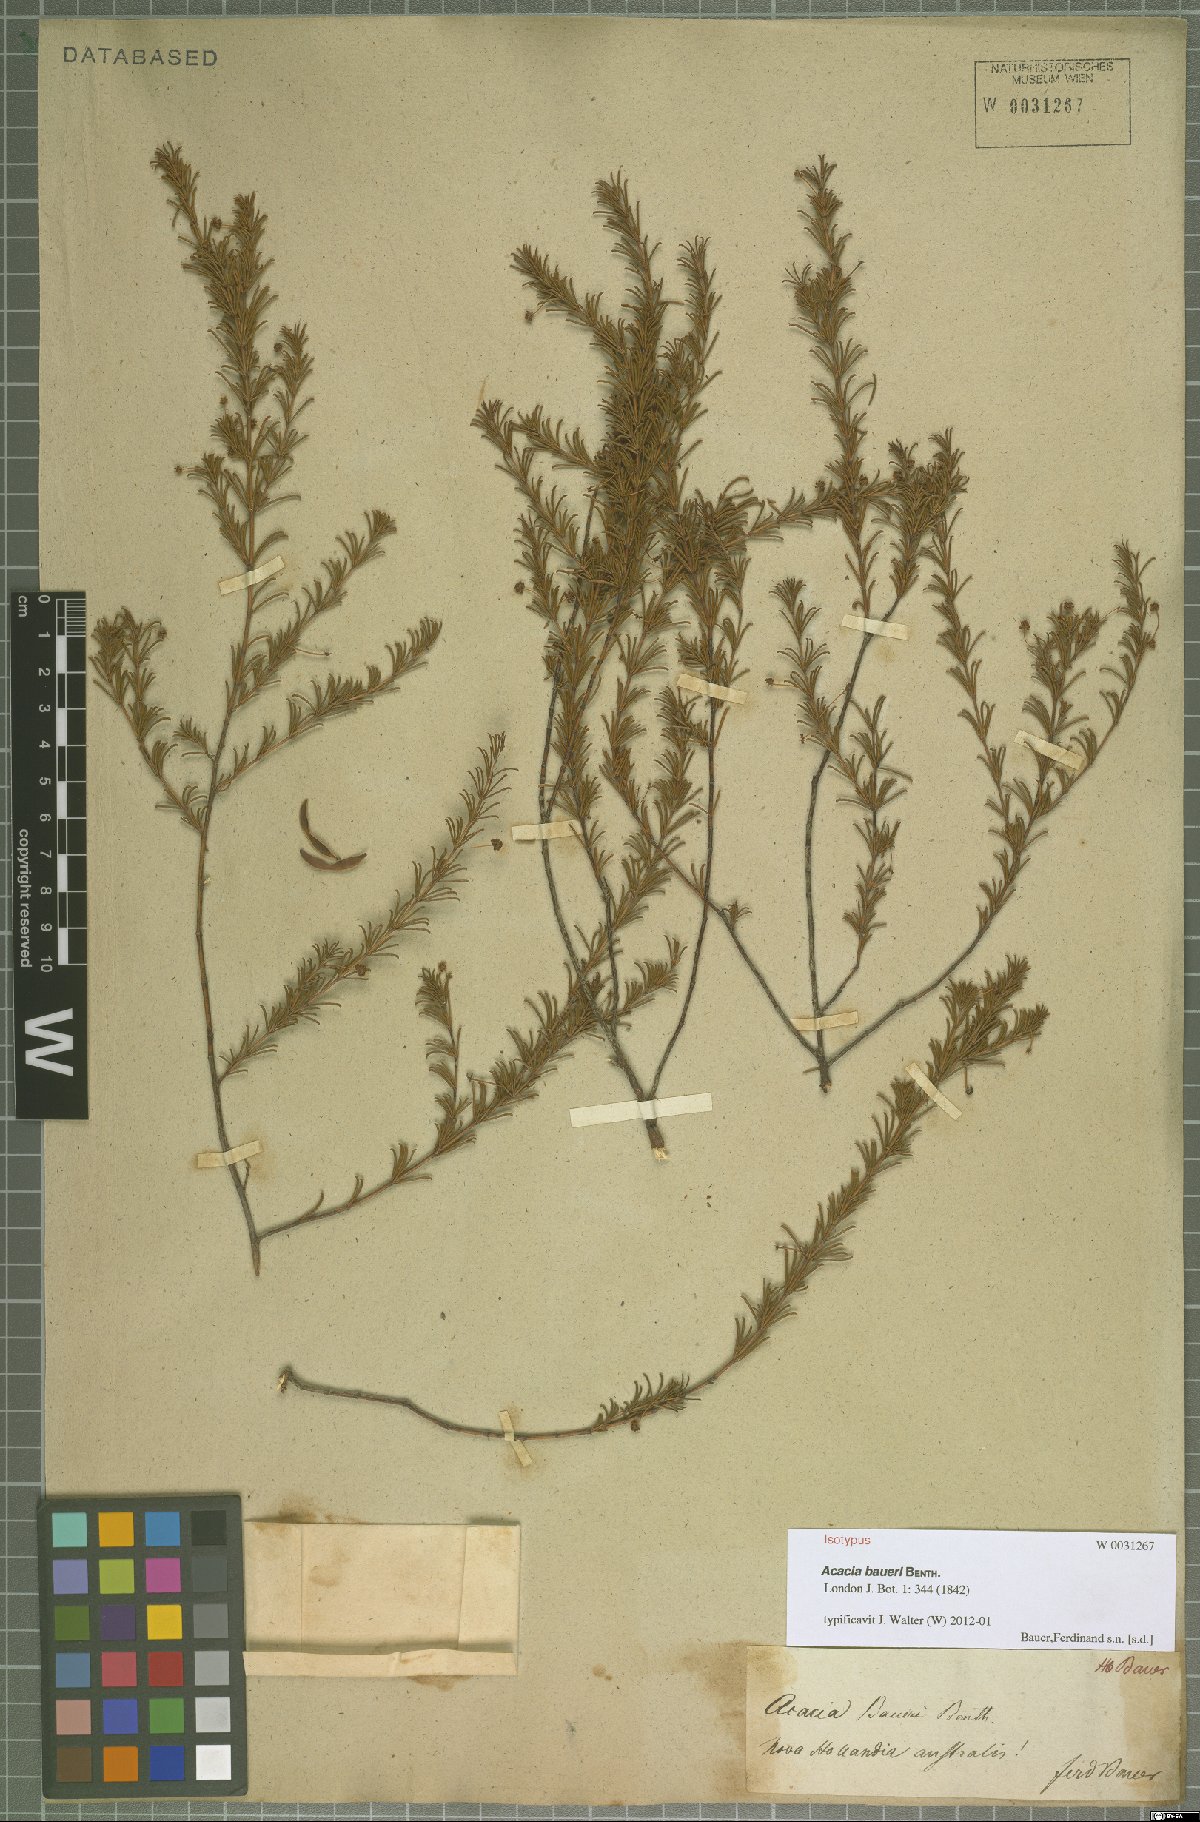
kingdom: Plantae
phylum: Tracheophyta
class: Magnoliopsida
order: Fabales
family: Fabaceae
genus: Acacia
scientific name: Acacia baueri
